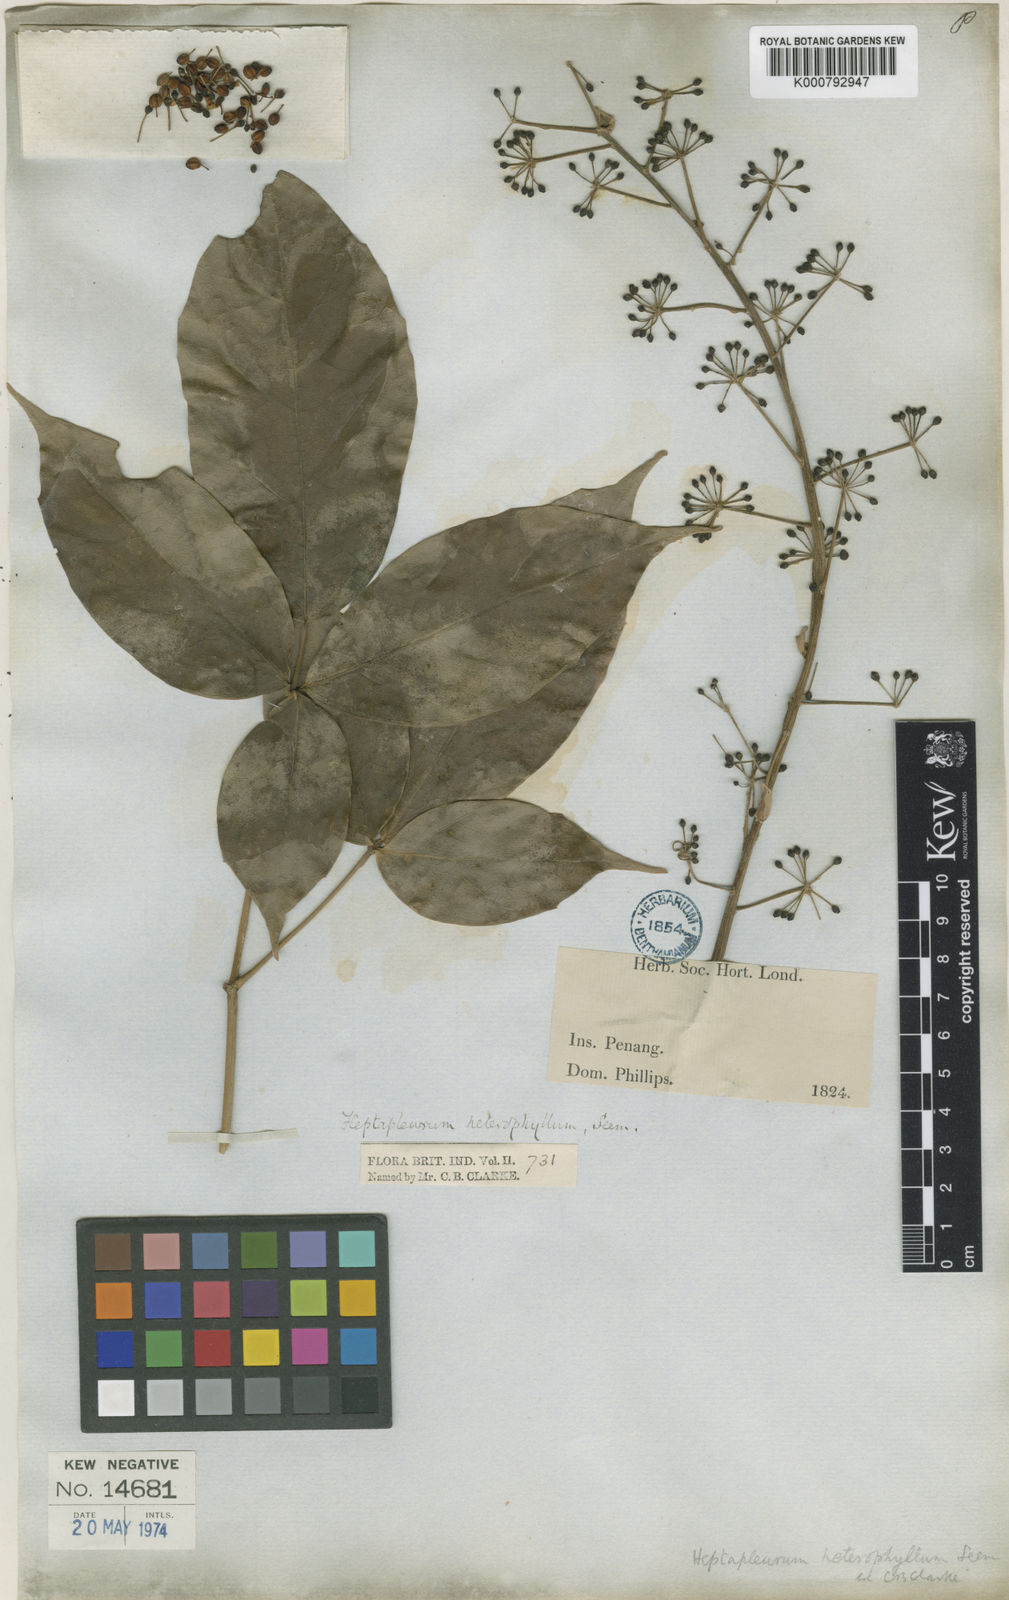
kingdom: Plantae
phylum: Tracheophyta
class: Magnoliopsida
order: Apiales
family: Araliaceae
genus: Heptapleurum
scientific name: Heptapleurum heterophyllum
